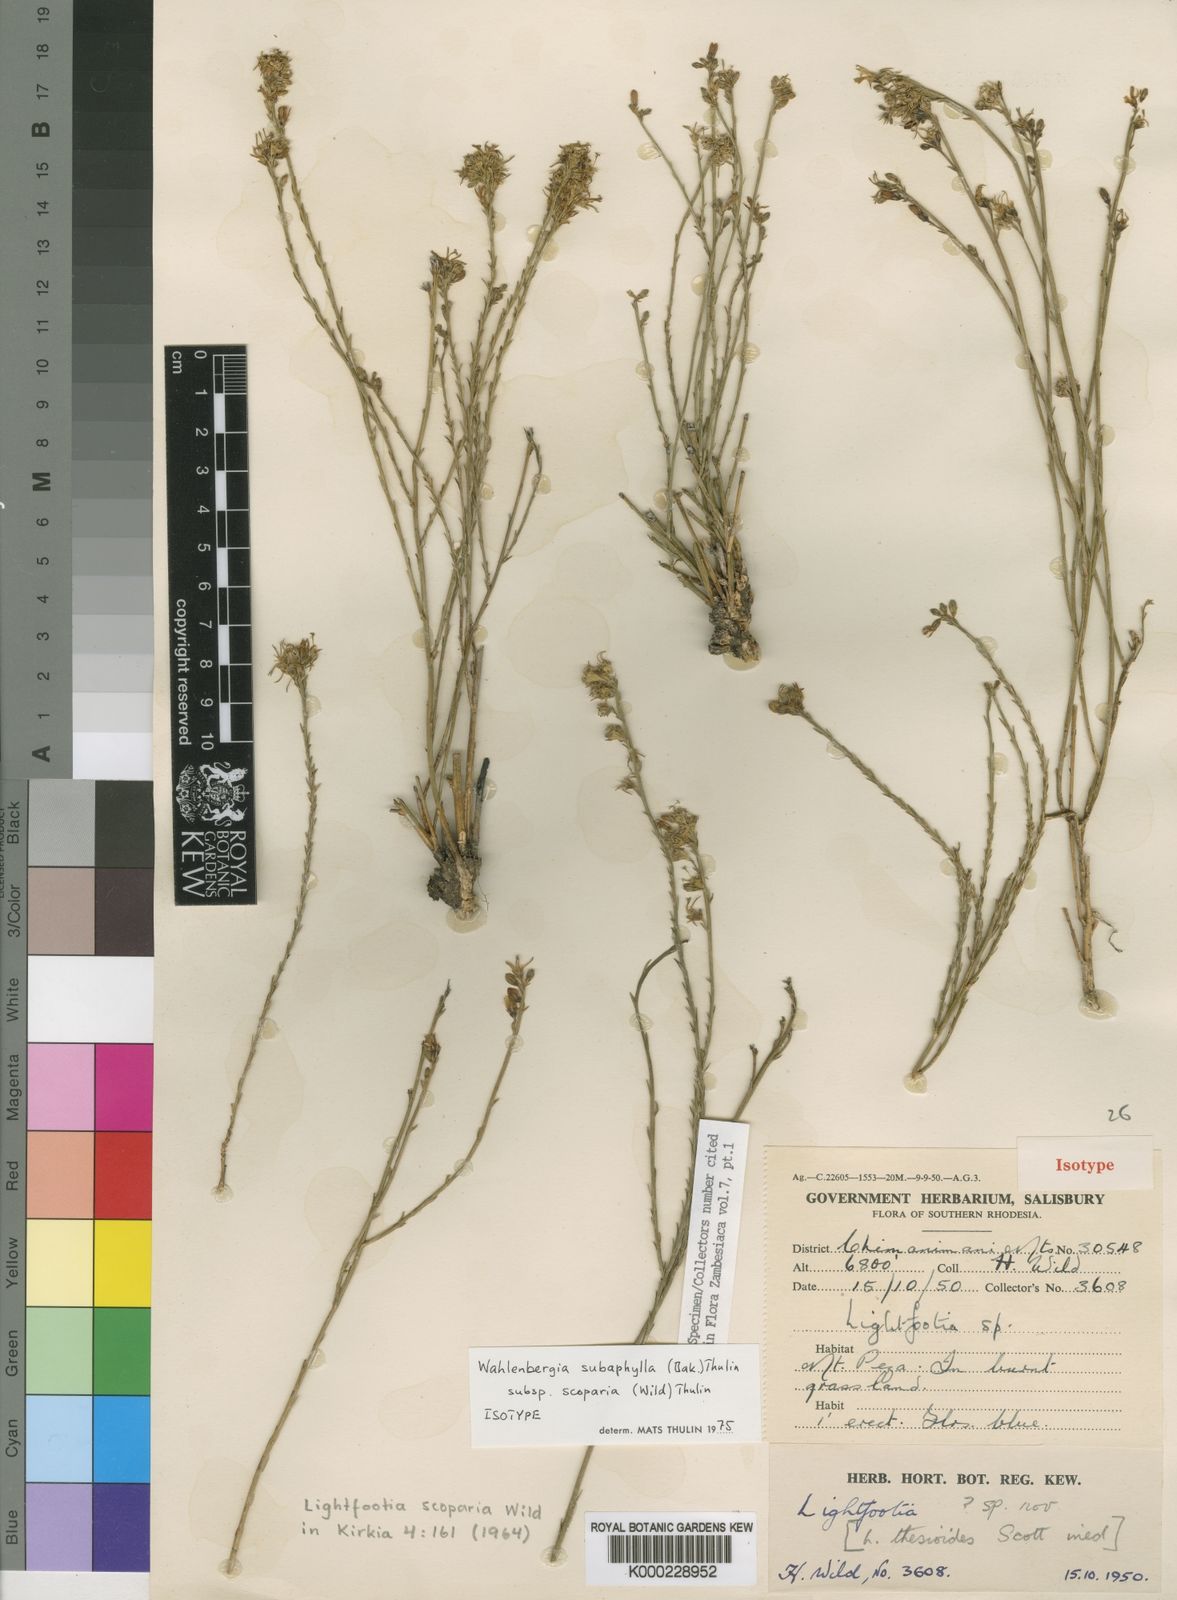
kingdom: Plantae
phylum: Tracheophyta
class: Magnoliopsida
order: Asterales
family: Campanulaceae
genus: Wahlenbergia
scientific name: Wahlenbergia subaphylla
